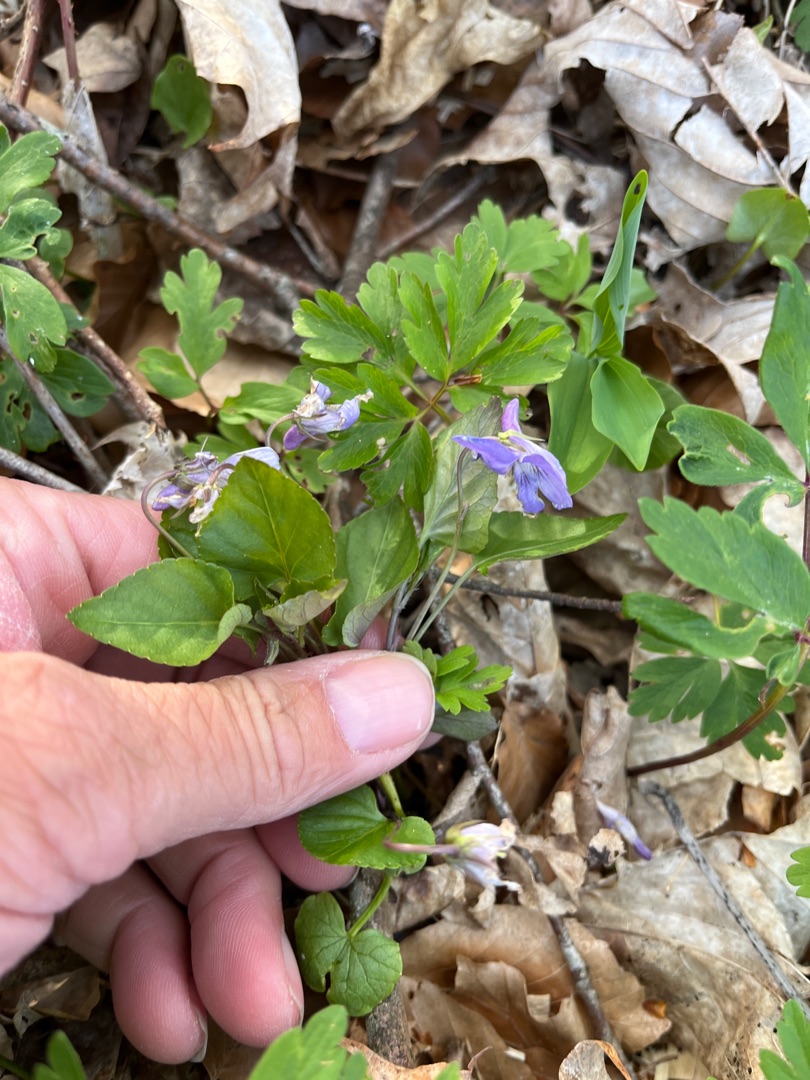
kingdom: Plantae
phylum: Tracheophyta
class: Magnoliopsida
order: Malpighiales
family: Violaceae
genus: Viola
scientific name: Viola reichenbachiana
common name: Skov-viol
